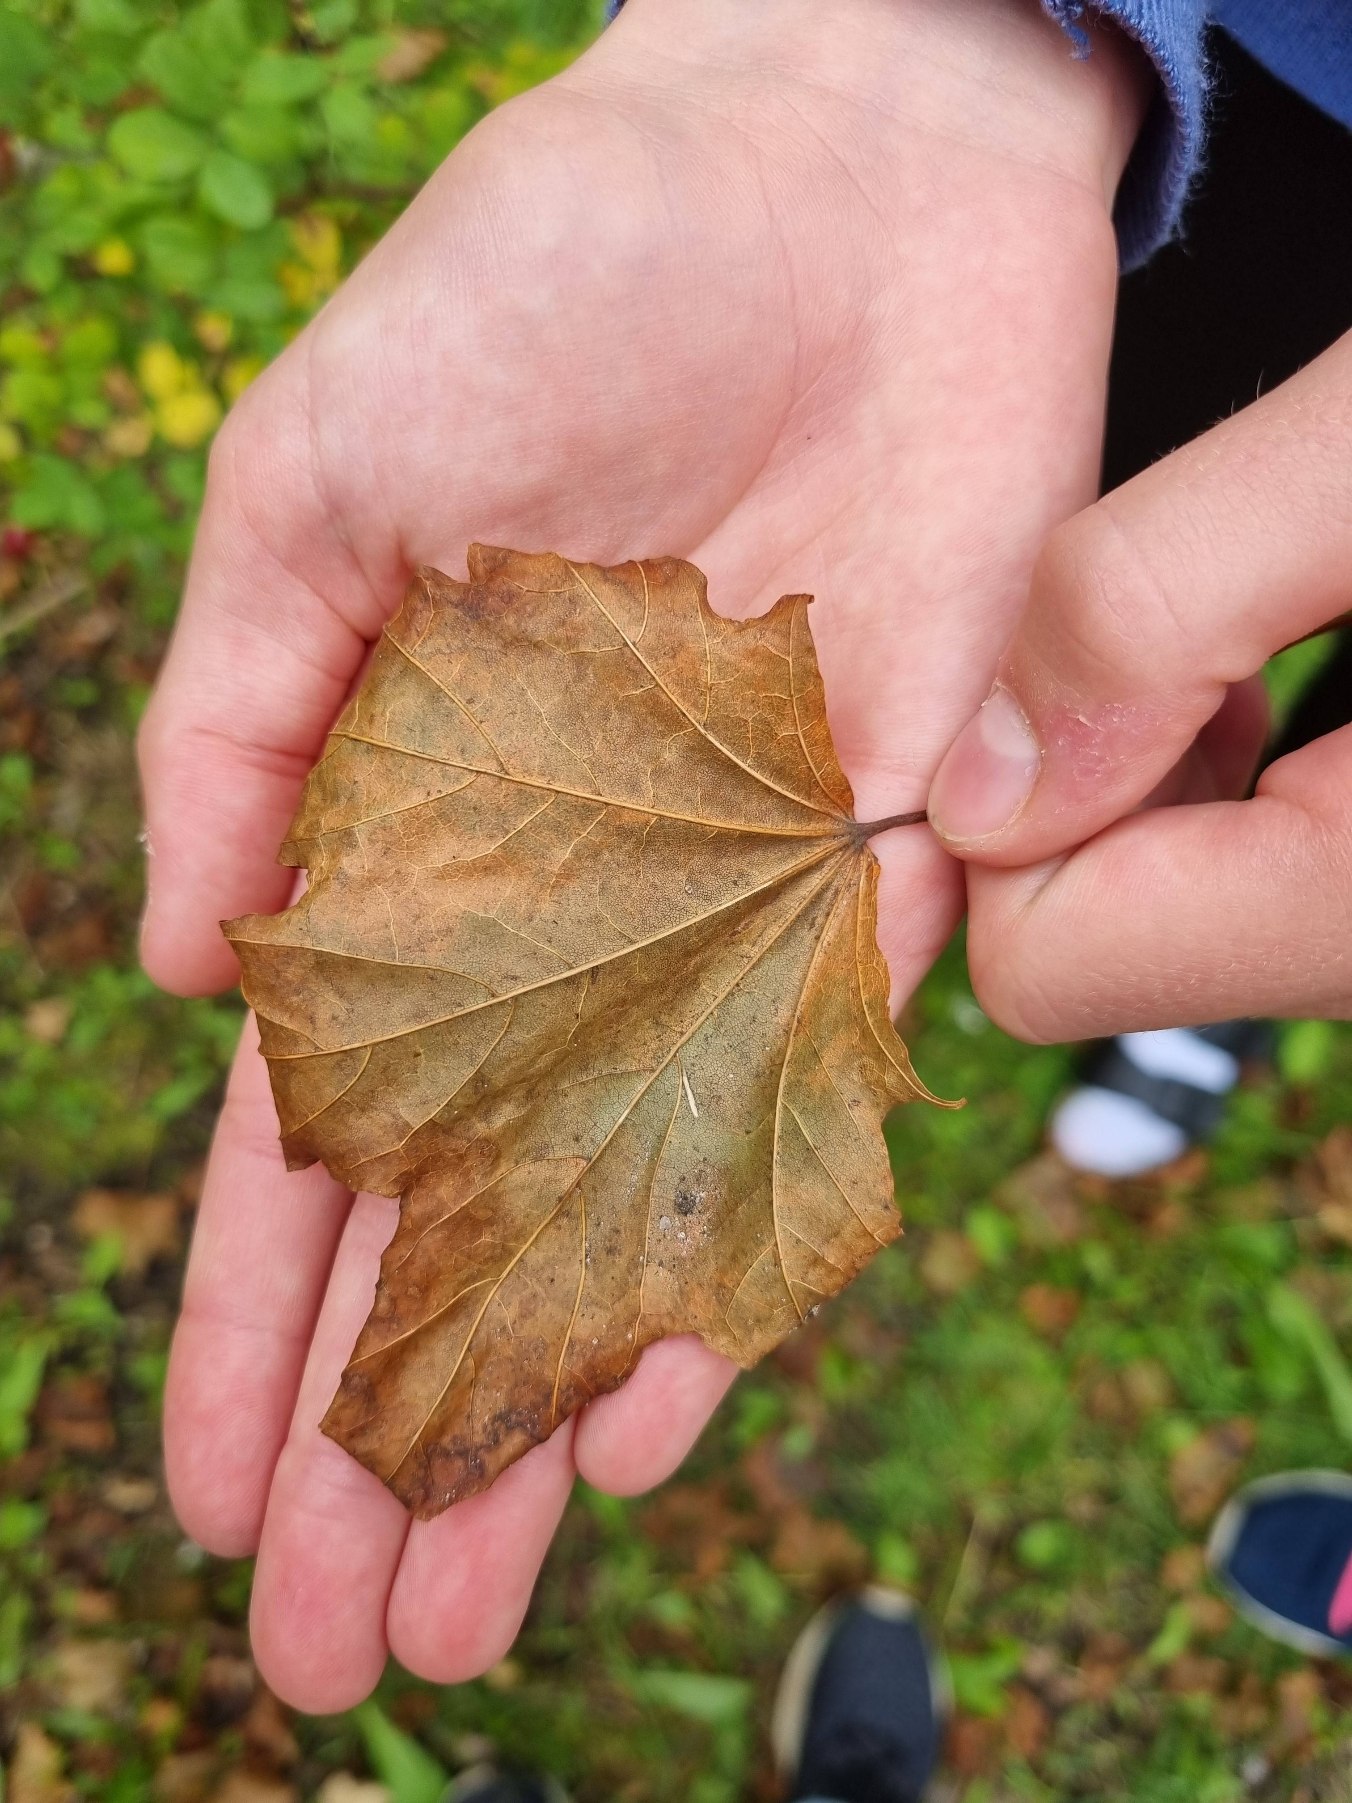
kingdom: Plantae
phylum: Tracheophyta
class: Magnoliopsida
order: Sapindales
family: Sapindaceae
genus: Acer
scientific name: Acer pseudoplatanus
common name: Ahorn
